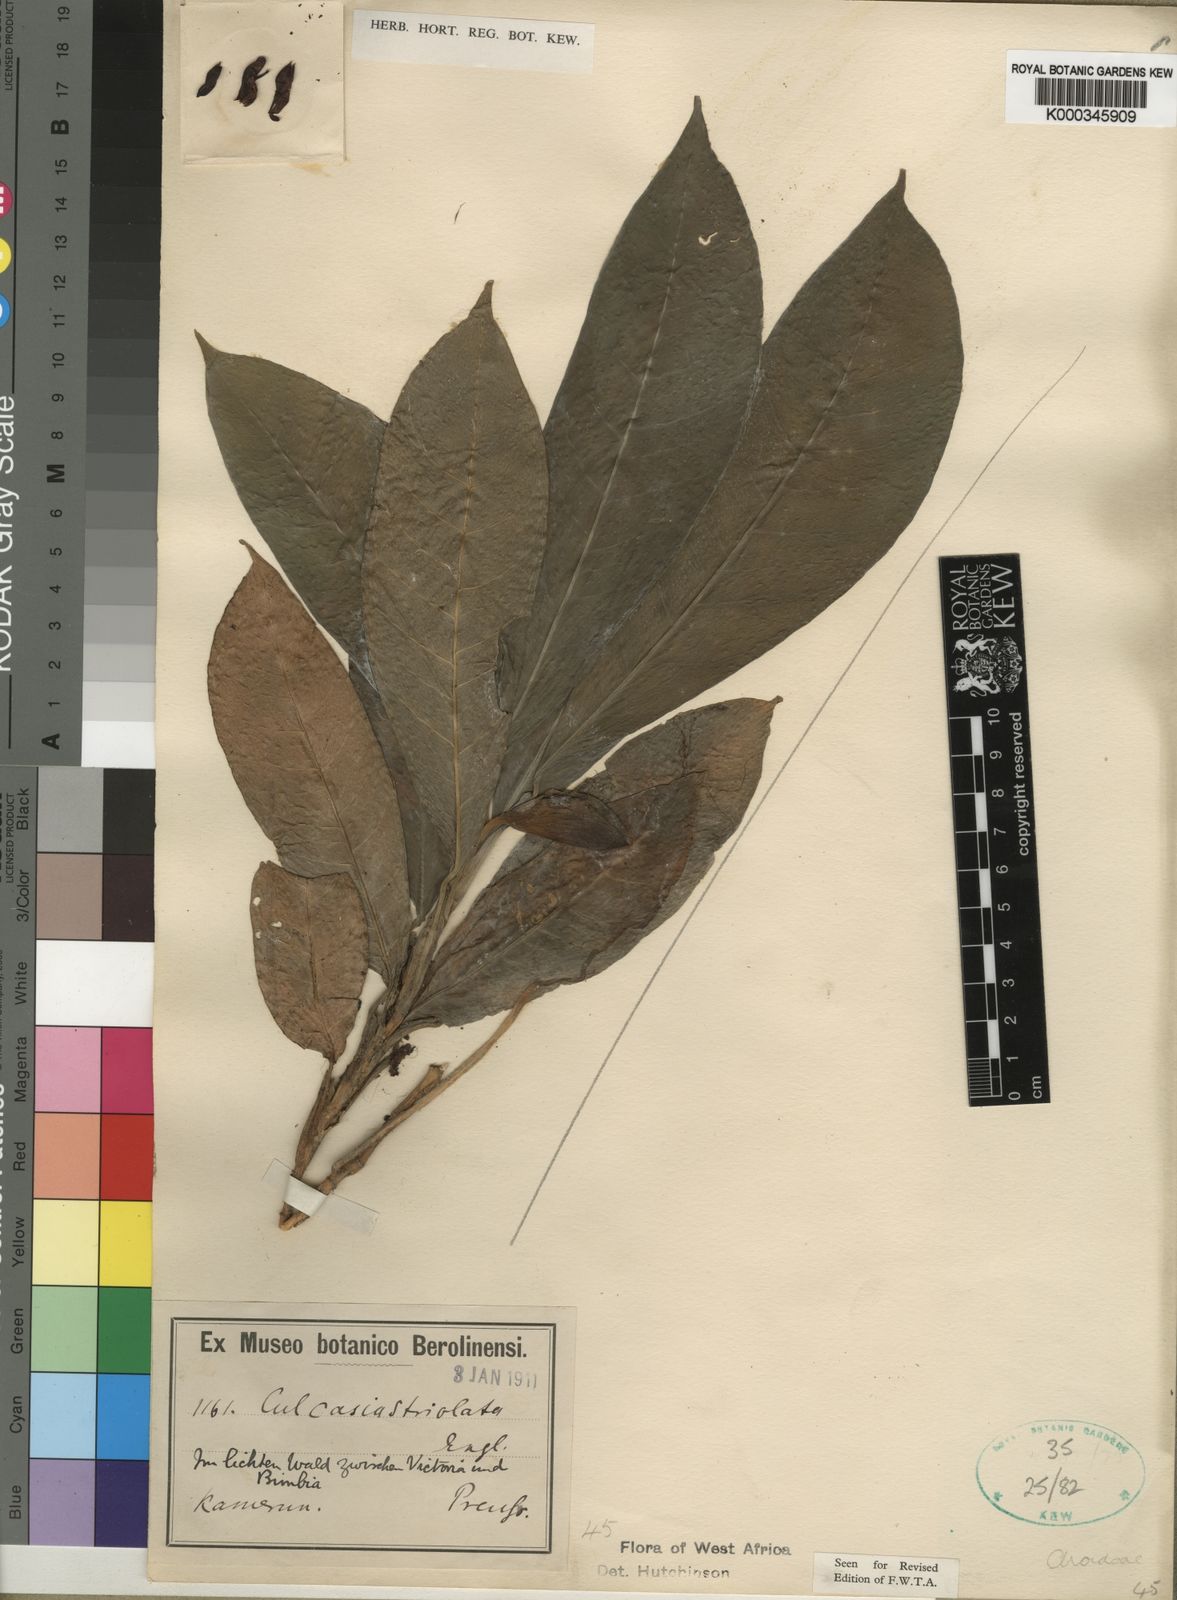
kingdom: Plantae
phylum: Tracheophyta
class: Liliopsida
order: Alismatales
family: Araceae
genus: Culcasia
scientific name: Culcasia striolata
